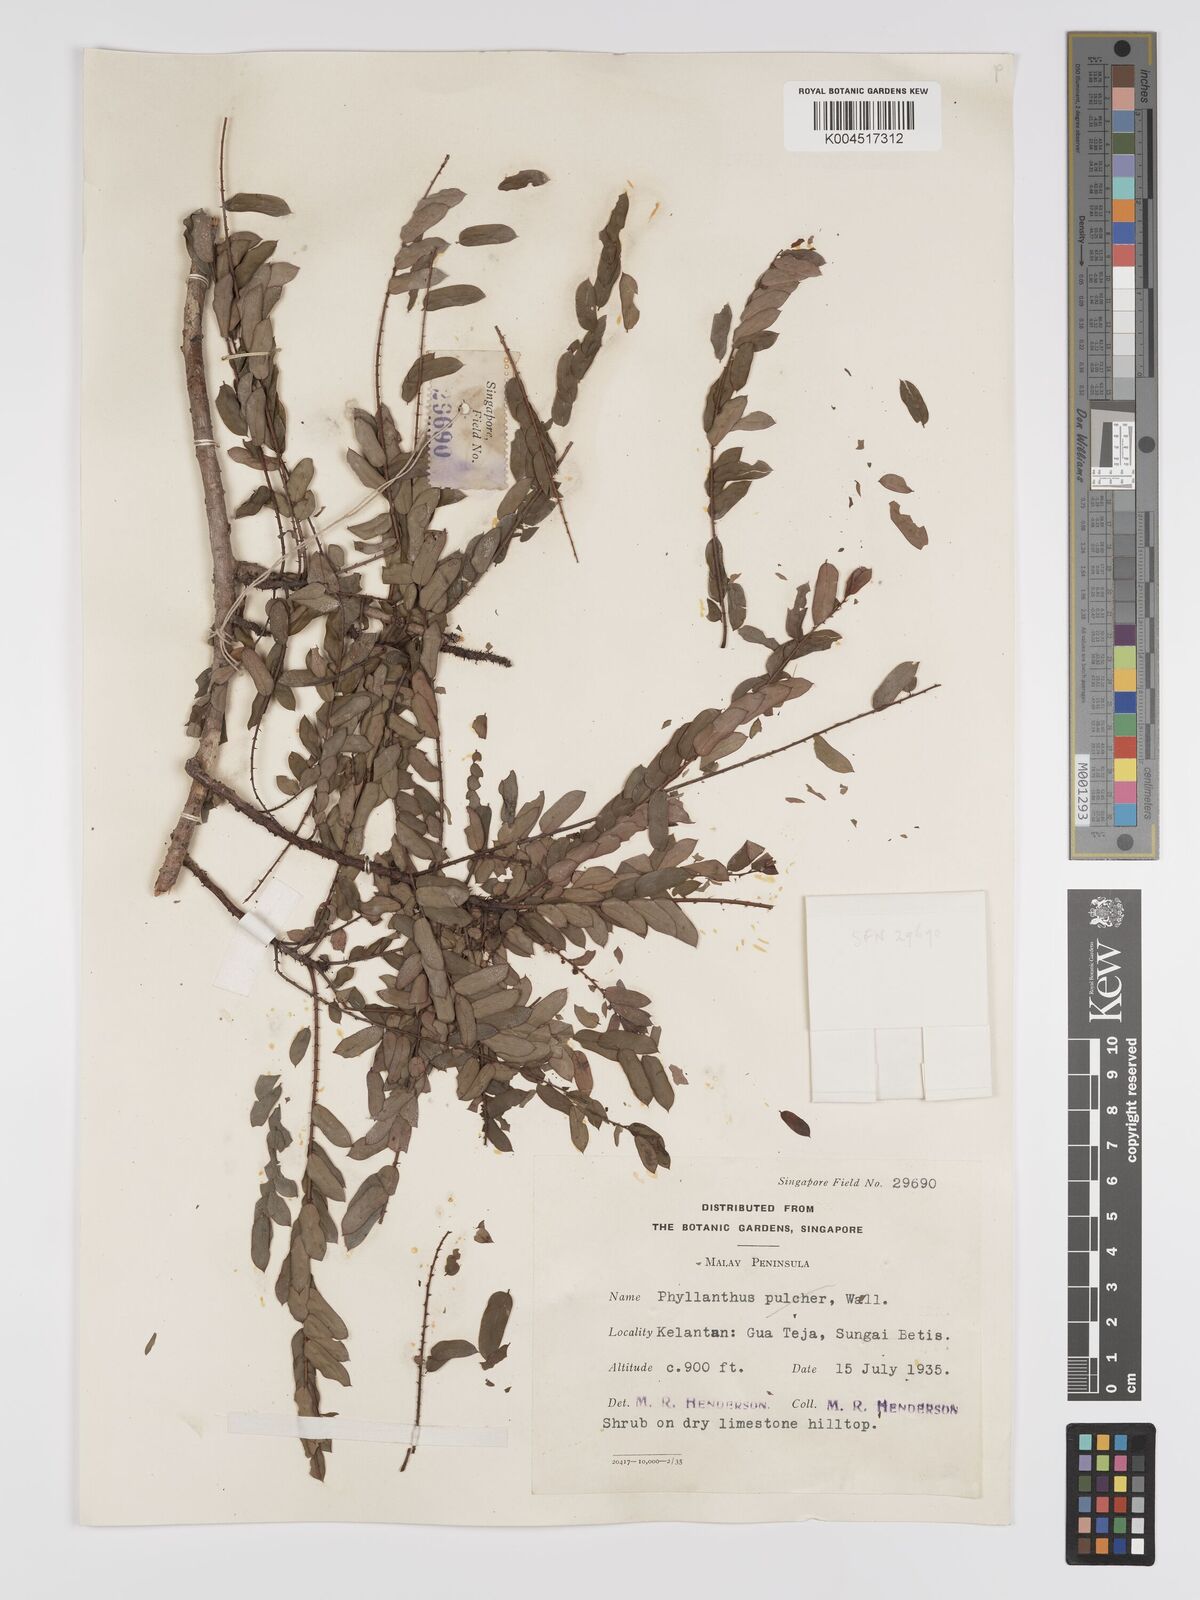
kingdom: Plantae
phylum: Tracheophyta
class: Magnoliopsida
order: Malpighiales
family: Phyllanthaceae
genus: Phyllanthus
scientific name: Phyllanthus
